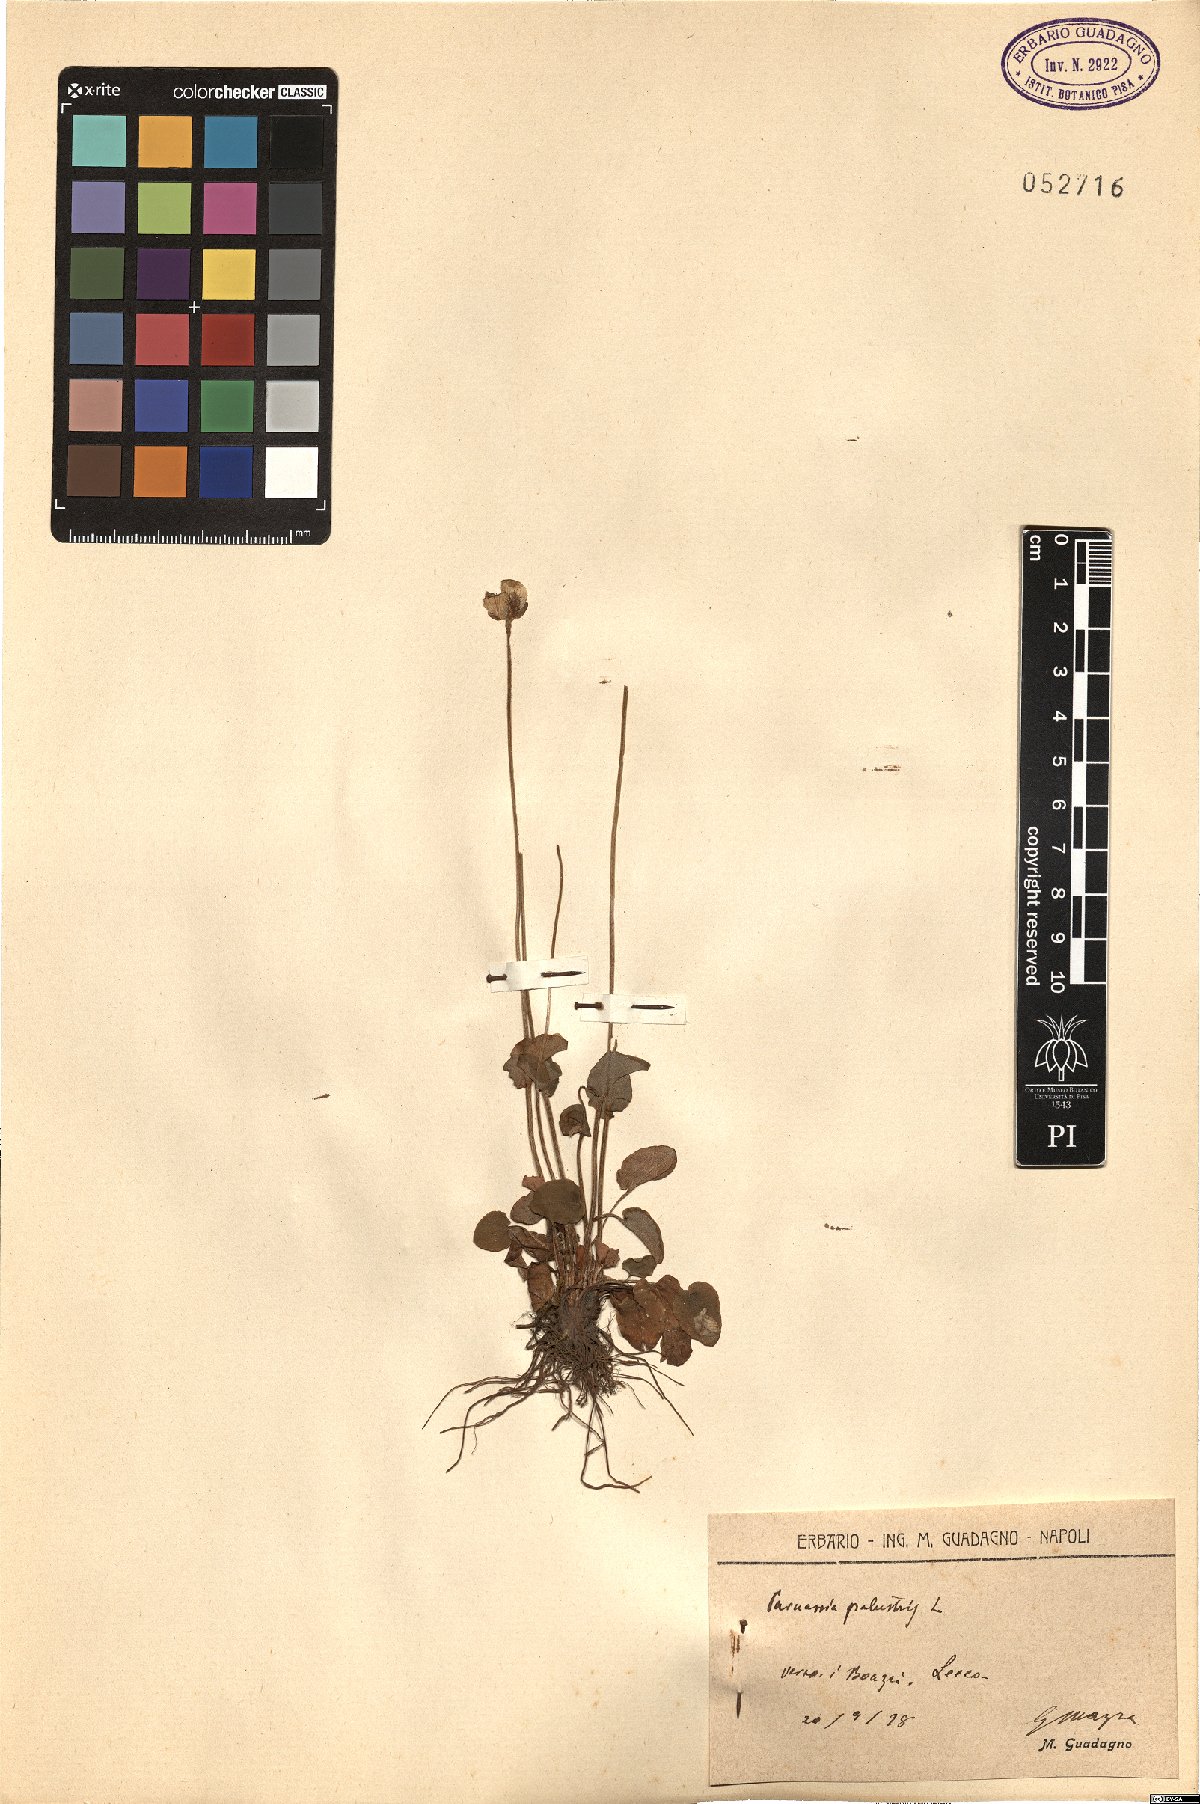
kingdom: Plantae
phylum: Tracheophyta
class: Magnoliopsida
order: Celastrales
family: Parnassiaceae
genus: Parnassia
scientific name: Parnassia palustris
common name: Grass-of-parnassus
